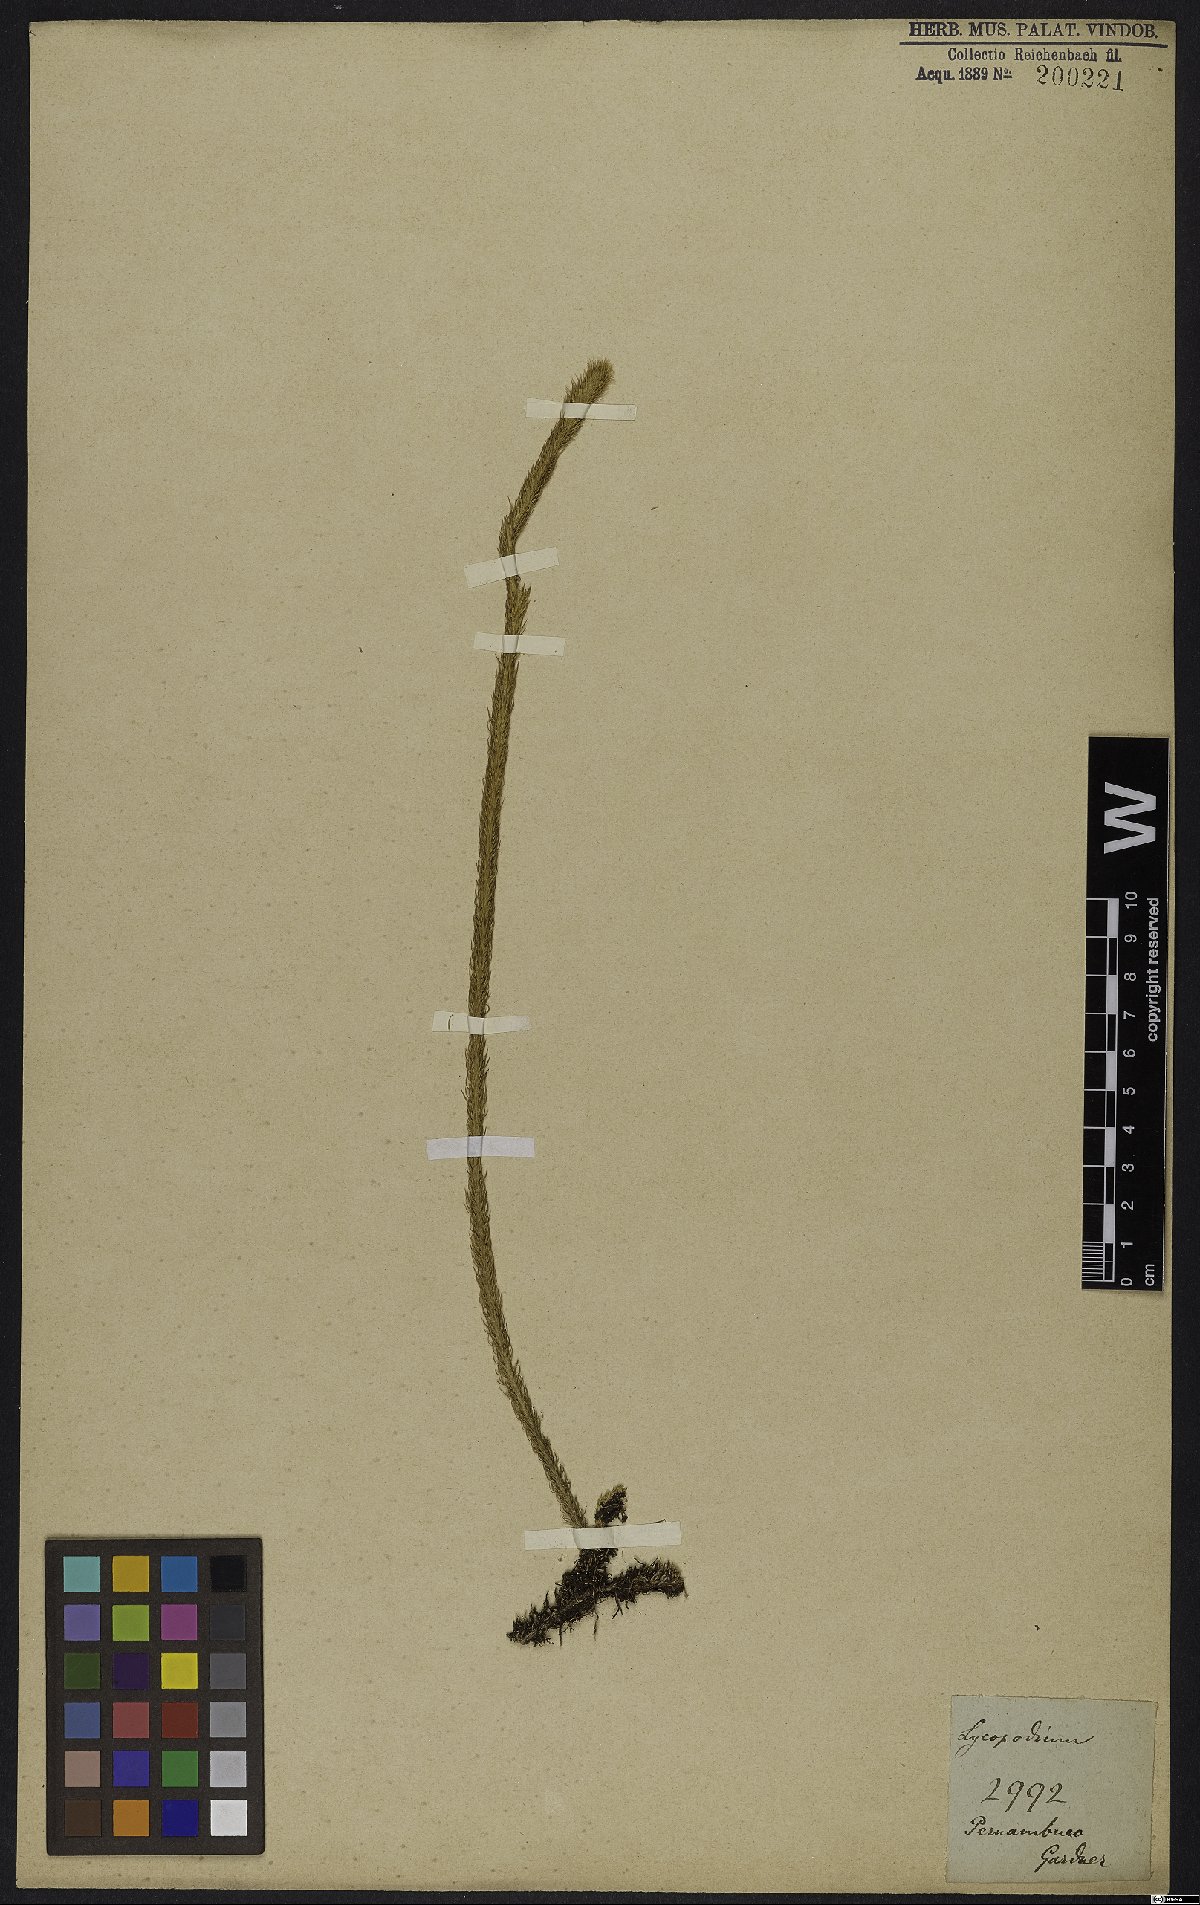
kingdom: Plantae
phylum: Tracheophyta
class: Lycopodiopsida
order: Lycopodiales
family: Lycopodiaceae
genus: Lycopodiella
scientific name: Lycopodiella alopecuroides
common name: Foxtail clubmoss
